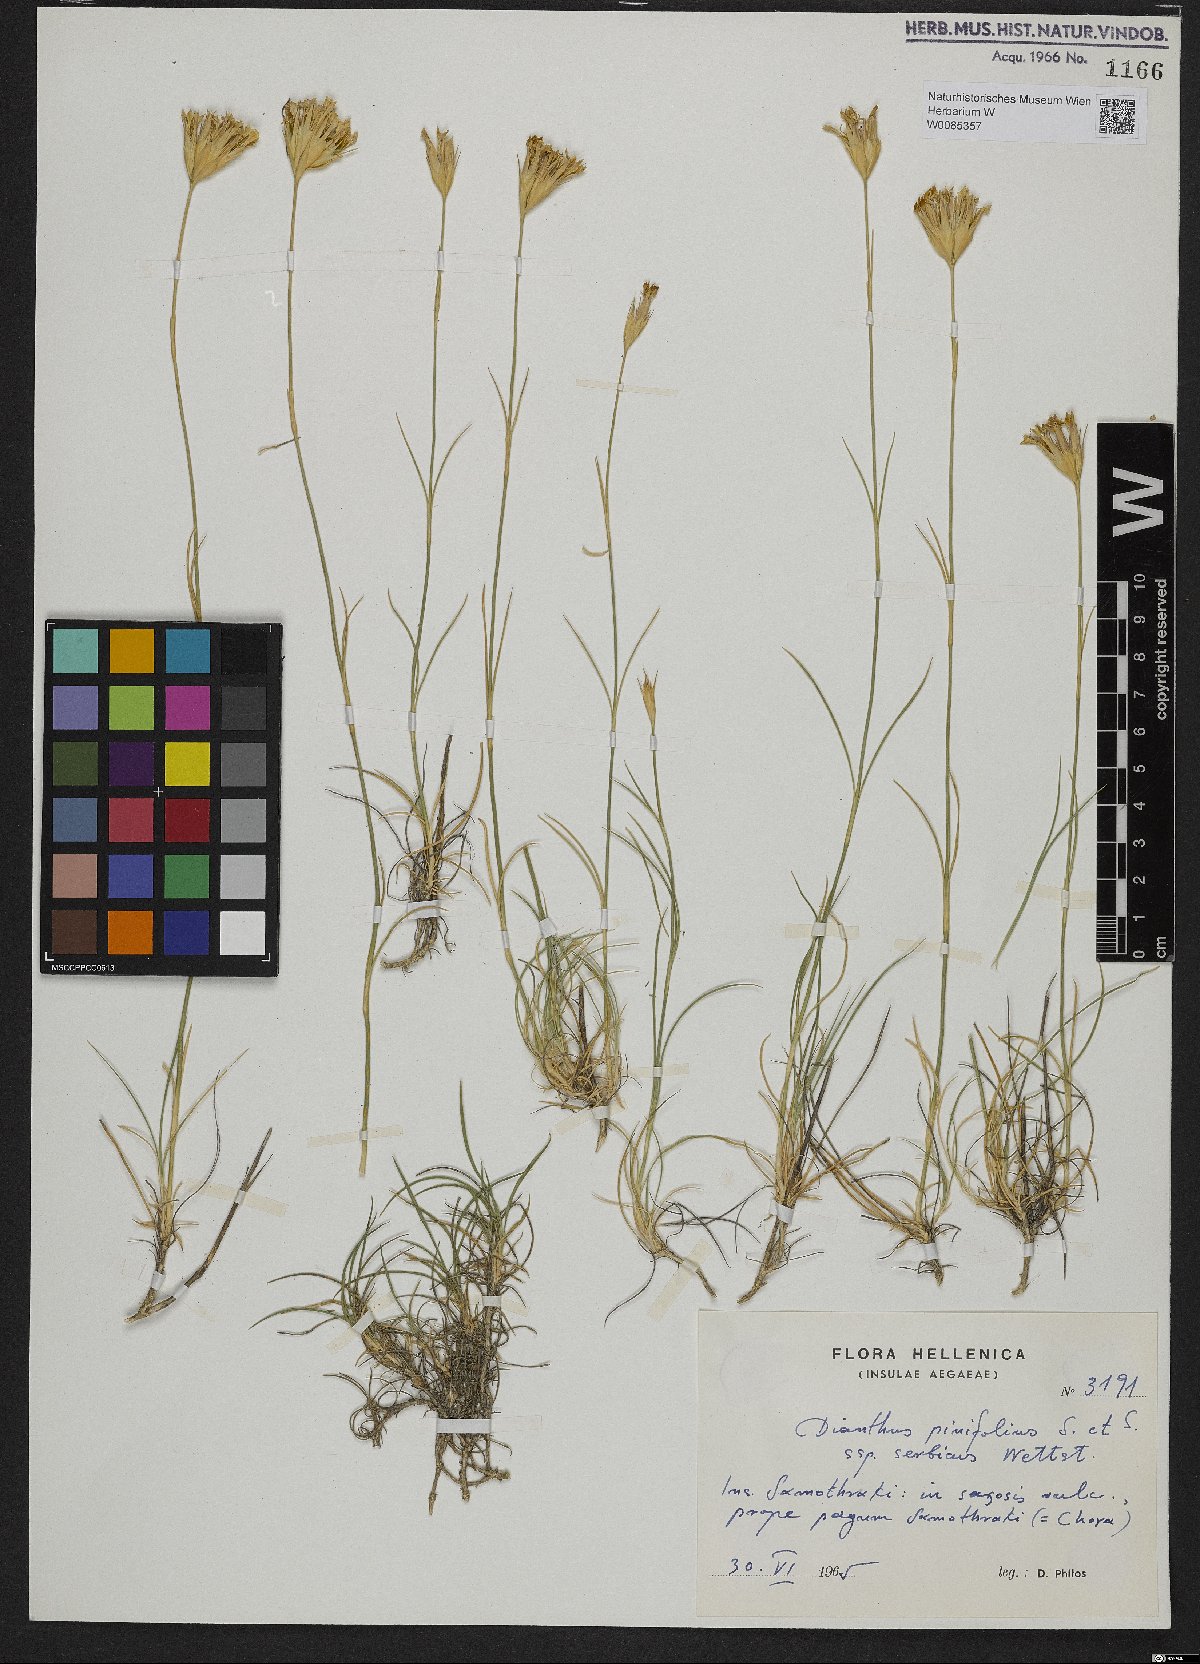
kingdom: Plantae
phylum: Tracheophyta
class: Magnoliopsida
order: Caryophyllales
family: Caryophyllaceae
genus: Dianthus
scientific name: Dianthus pinifolius
